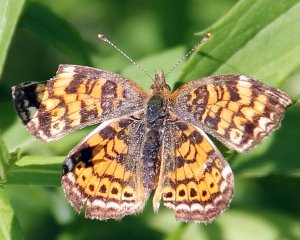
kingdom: Animalia
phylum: Arthropoda
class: Insecta
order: Lepidoptera
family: Nymphalidae
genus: Phyciodes
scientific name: Phyciodes tharos
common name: Northern Crescent
